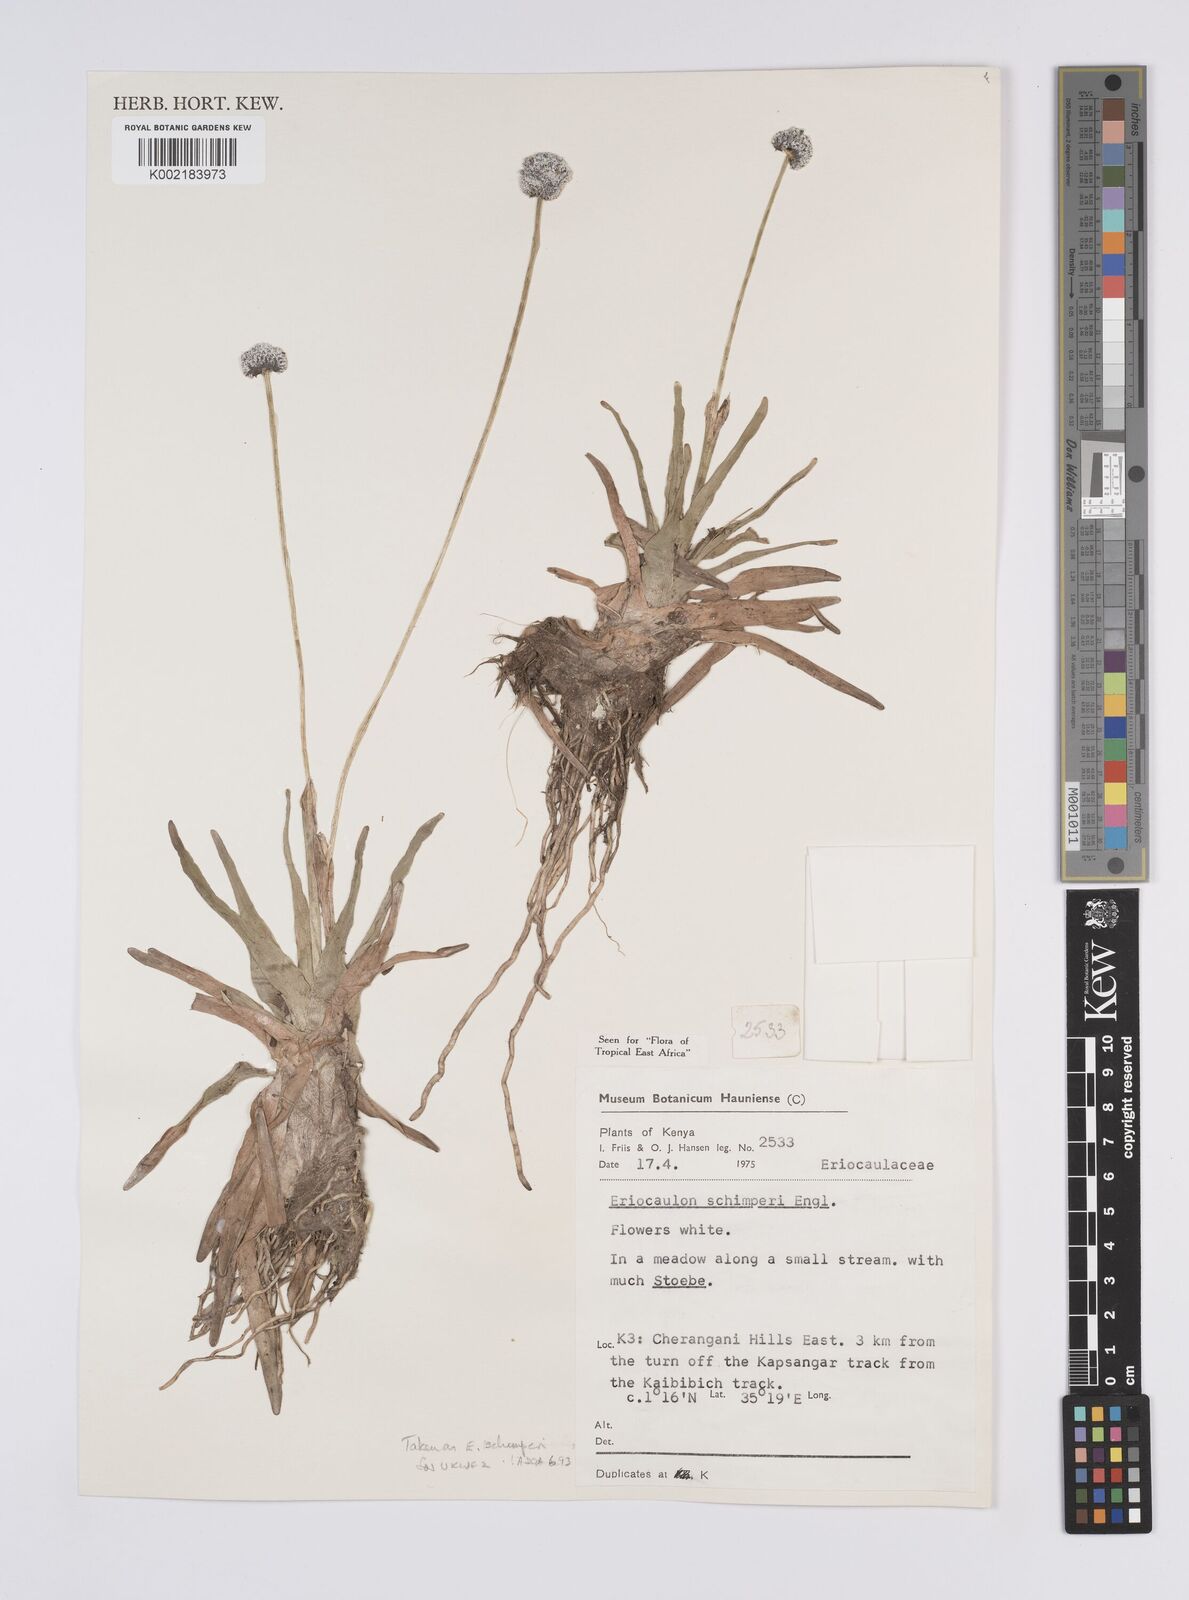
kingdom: Plantae
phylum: Tracheophyta
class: Liliopsida
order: Poales
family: Eriocaulaceae
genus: Eriocaulon
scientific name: Eriocaulon schimperi
